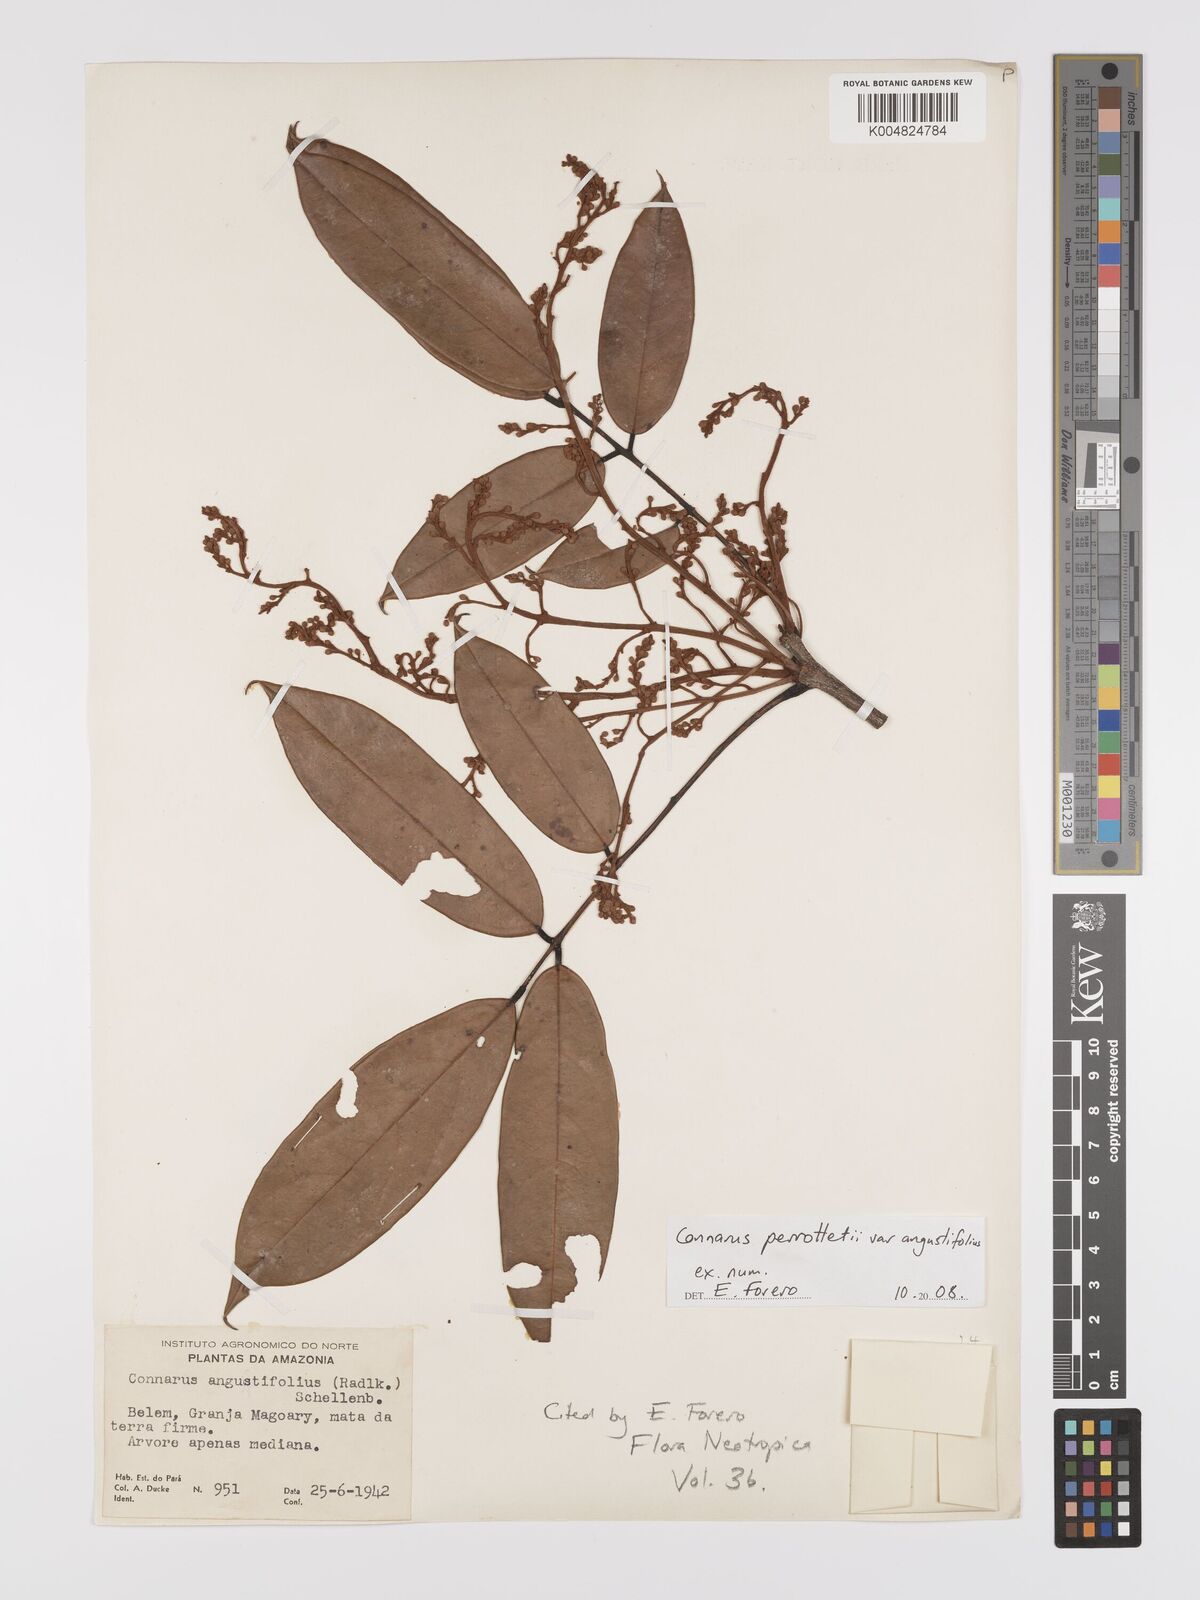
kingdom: Plantae
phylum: Tracheophyta
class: Magnoliopsida
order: Oxalidales
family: Connaraceae
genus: Connarus
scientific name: Connarus perrottetii
